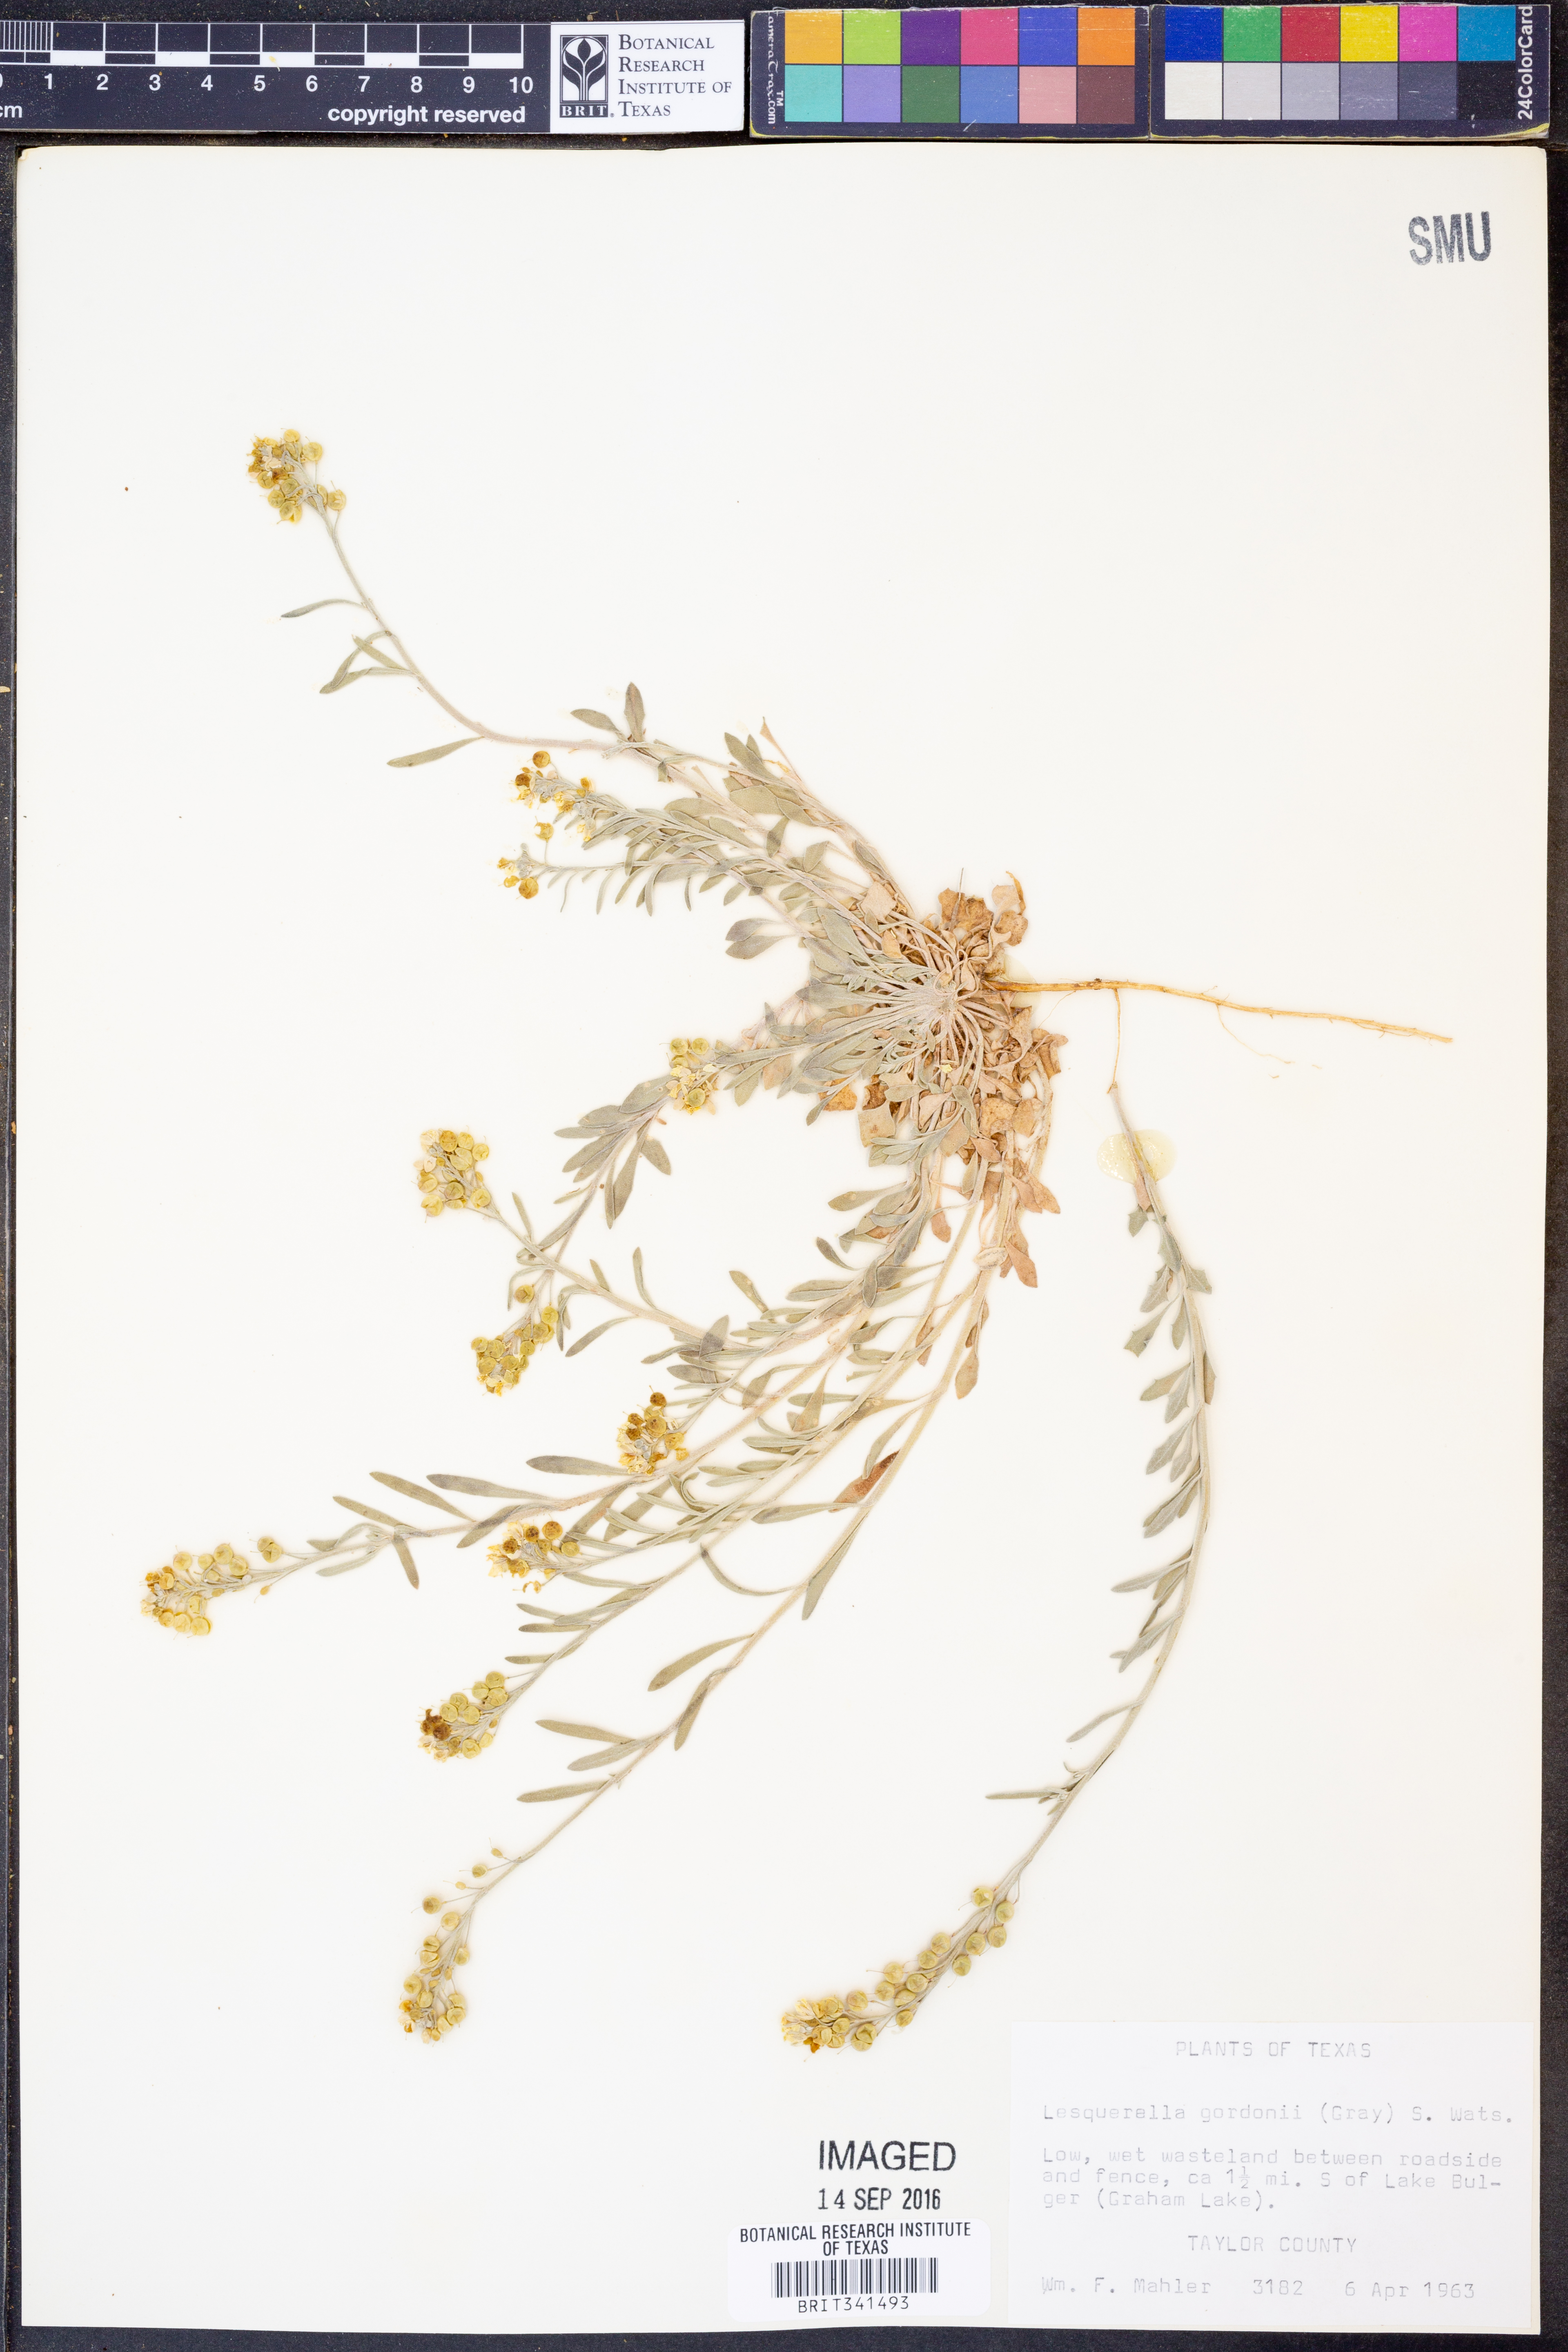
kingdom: Plantae
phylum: Tracheophyta
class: Magnoliopsida
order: Brassicales
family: Brassicaceae
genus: Physaria
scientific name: Physaria gordonii
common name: Gordon's bladderpod
